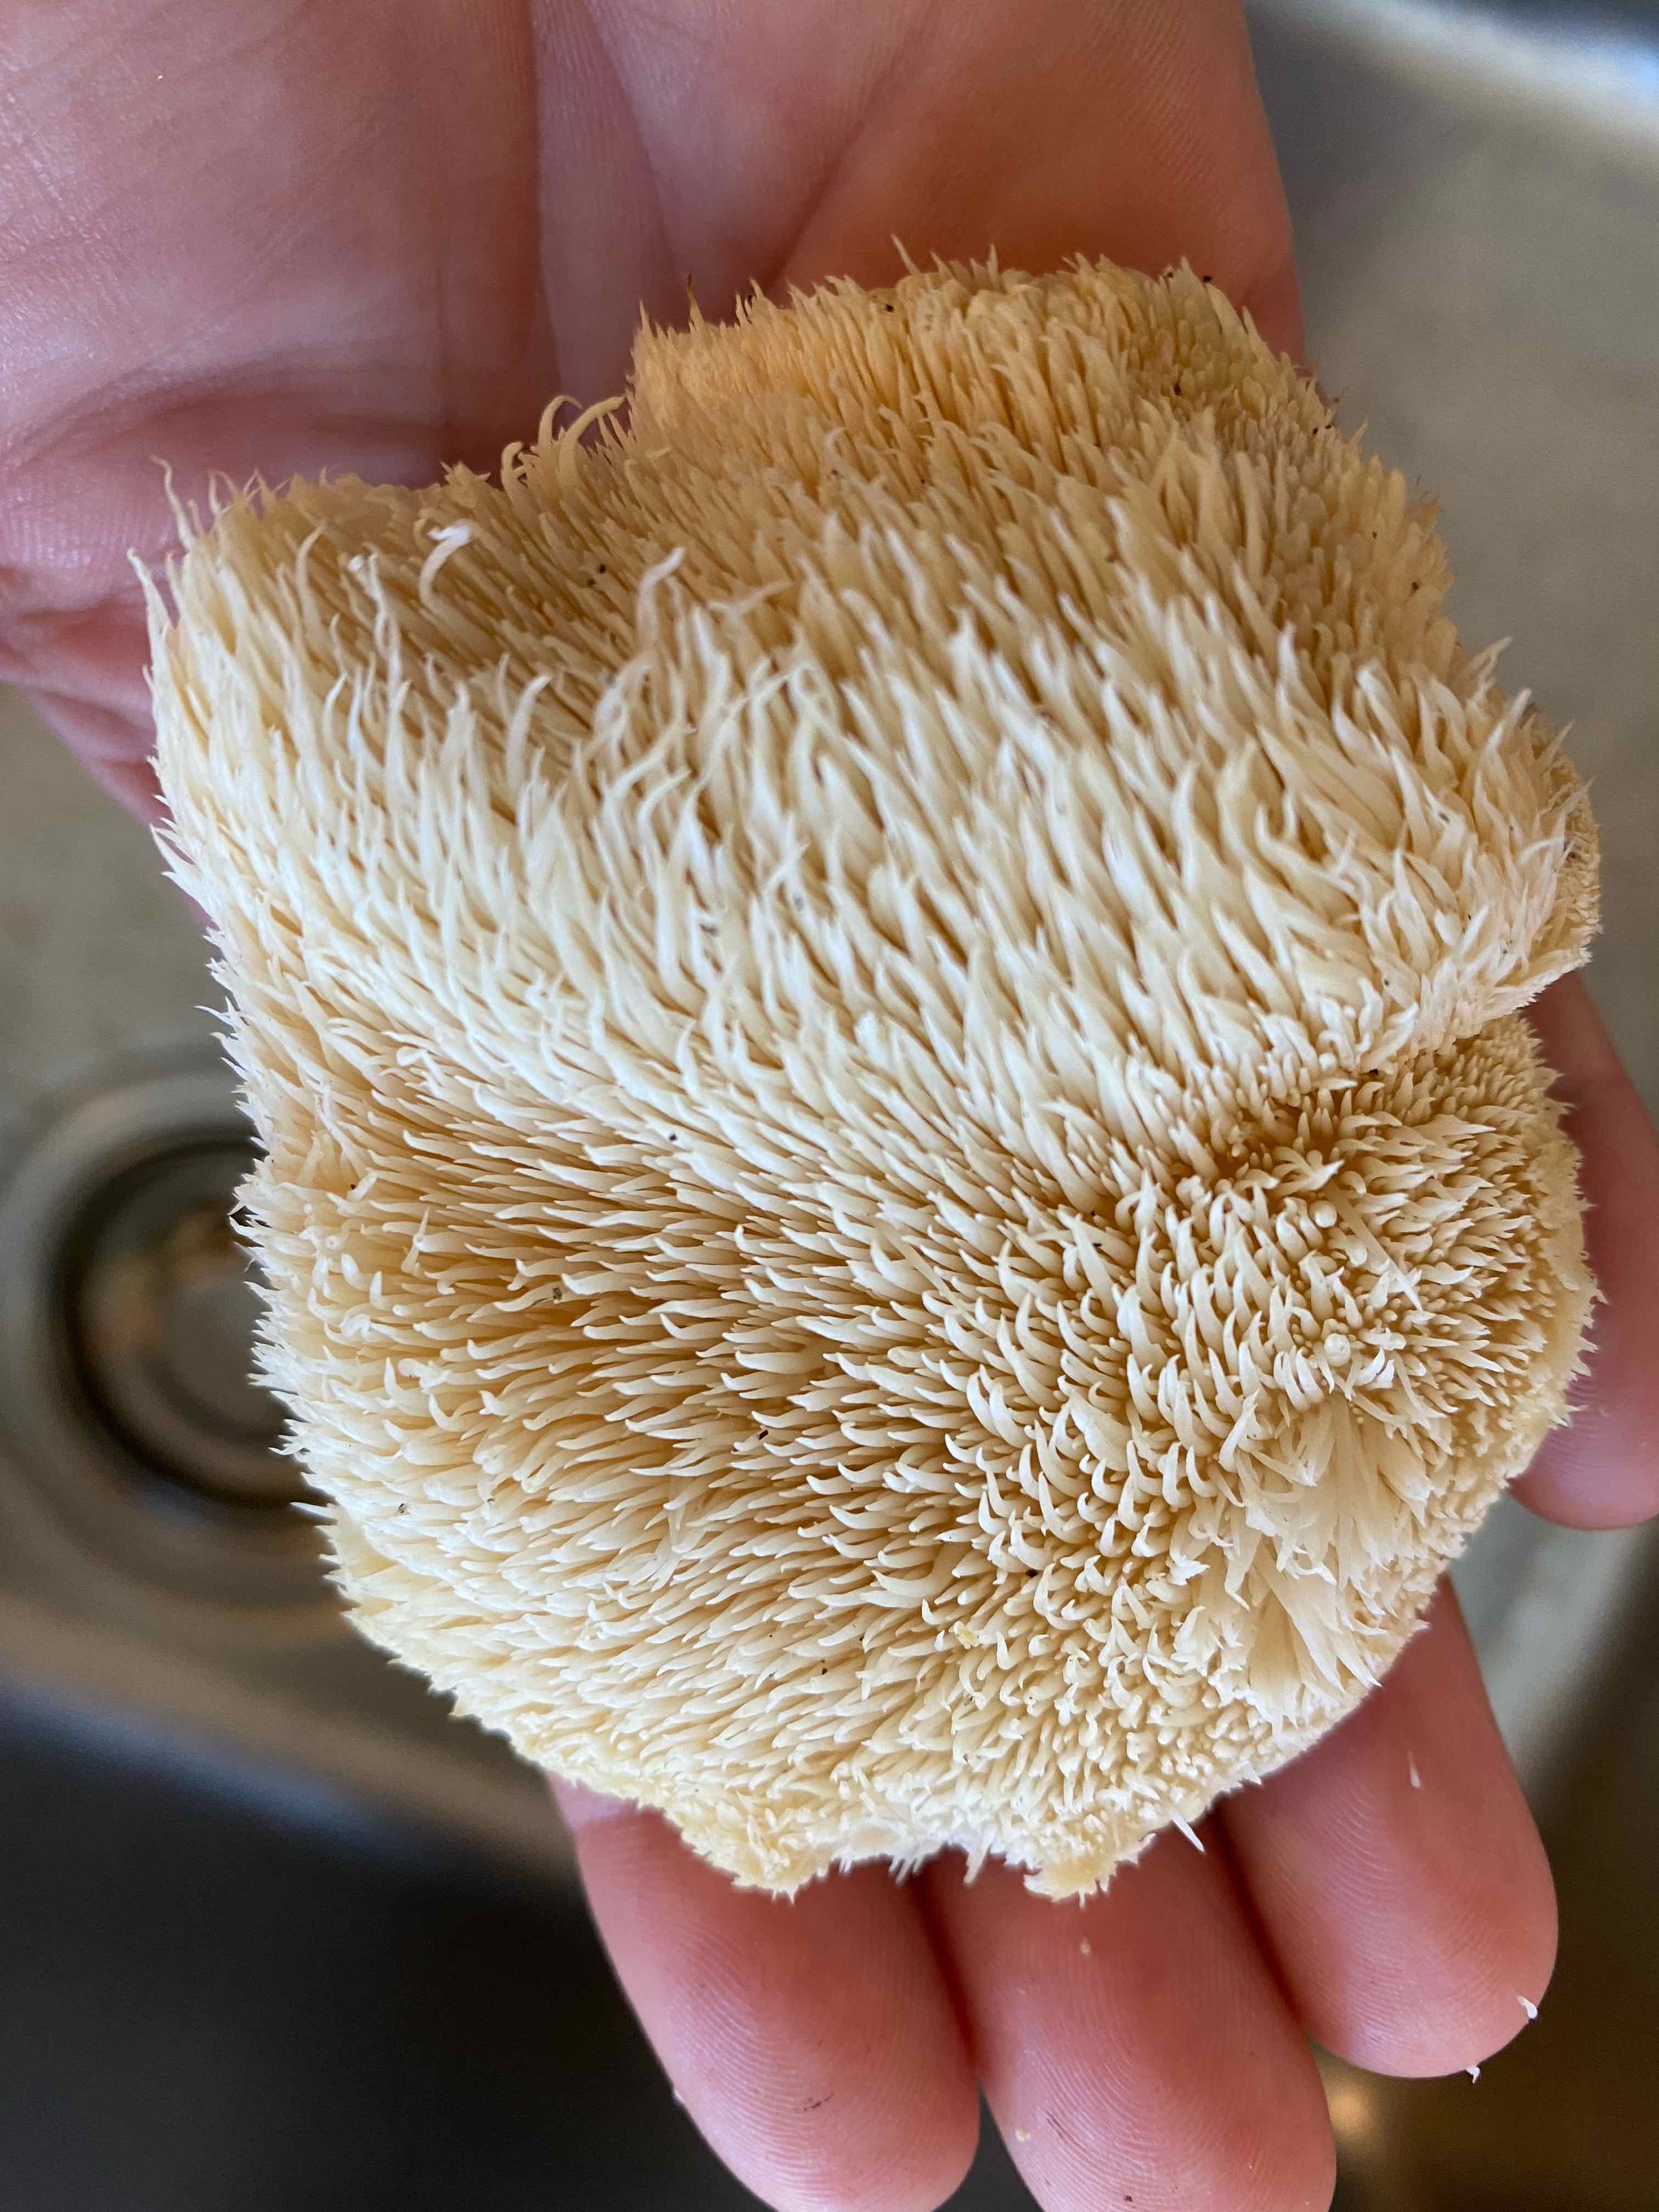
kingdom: Fungi
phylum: Basidiomycota
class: Agaricomycetes
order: Russulales
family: Hericiaceae
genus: Hericium
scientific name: Hericium cirrhatum
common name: børstepigsvamp
